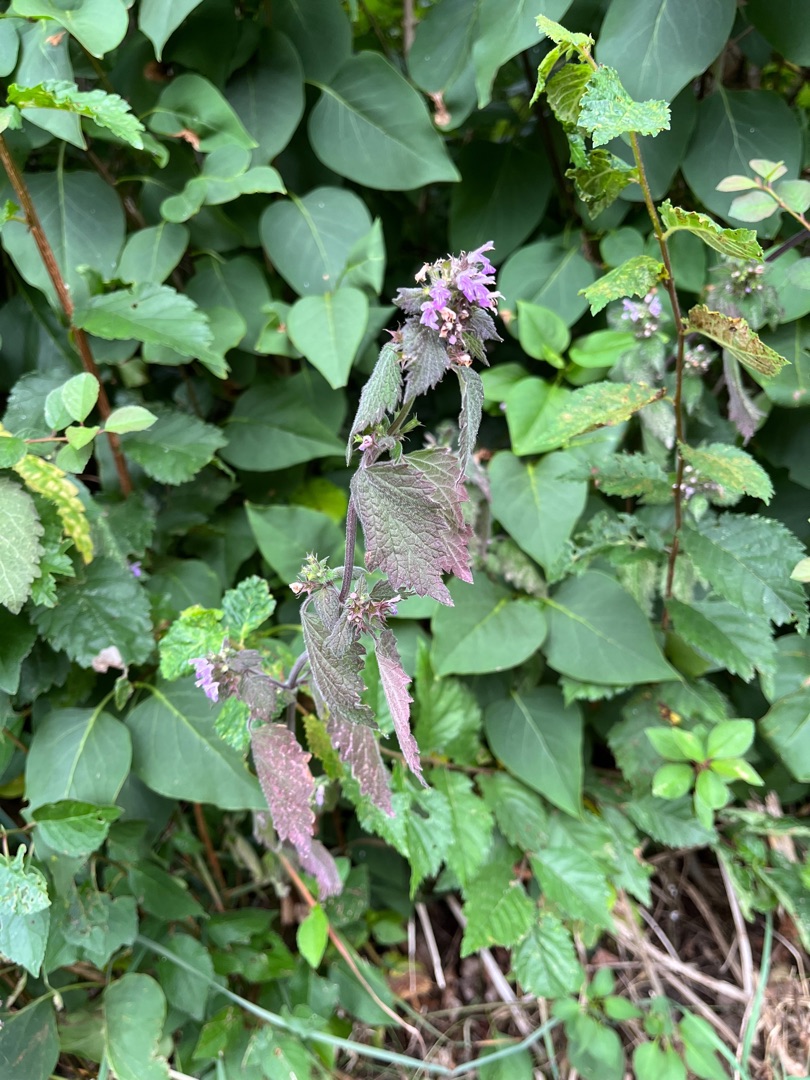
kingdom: Plantae
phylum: Tracheophyta
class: Magnoliopsida
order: Lamiales
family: Lamiaceae
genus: Ballota
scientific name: Ballota nigra
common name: Rød tandbæger
